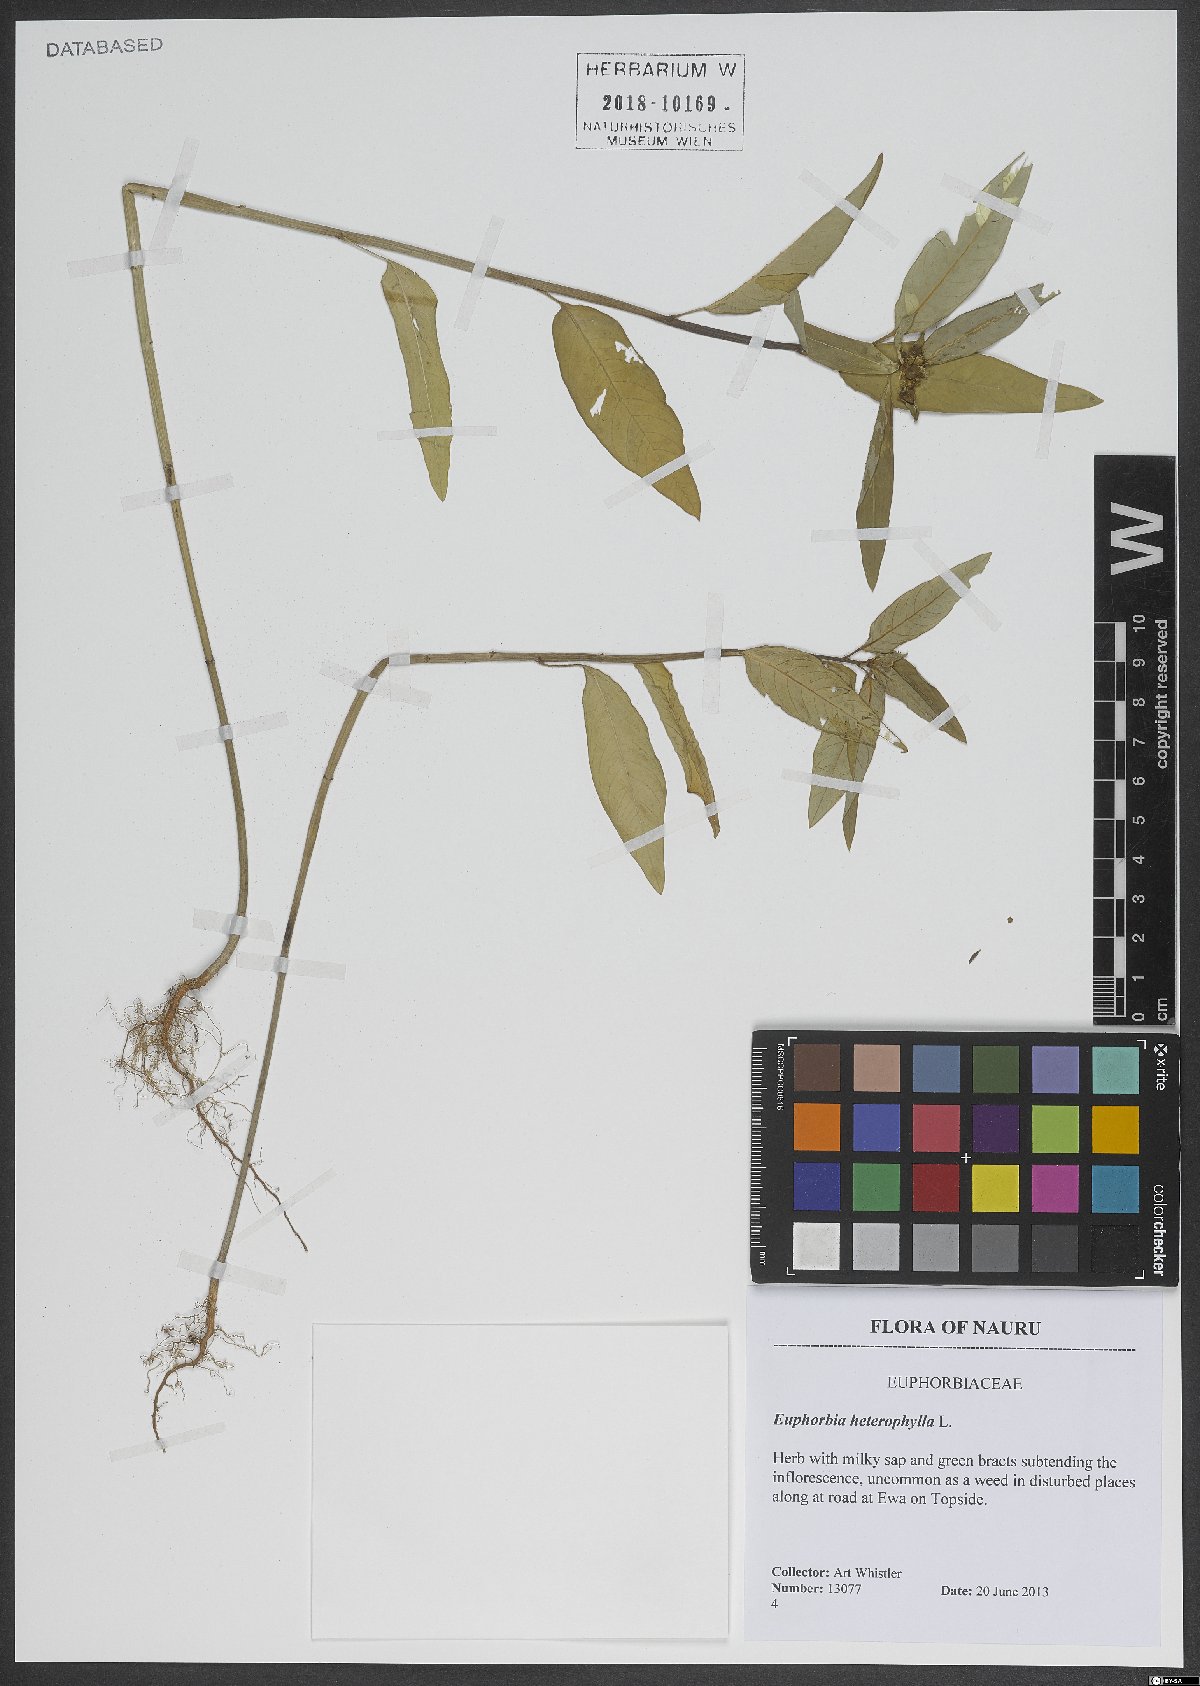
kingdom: Plantae
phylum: Tracheophyta
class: Magnoliopsida
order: Malpighiales
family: Euphorbiaceae
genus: Euphorbia
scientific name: Euphorbia heterophylla
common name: Mexican fireplant
